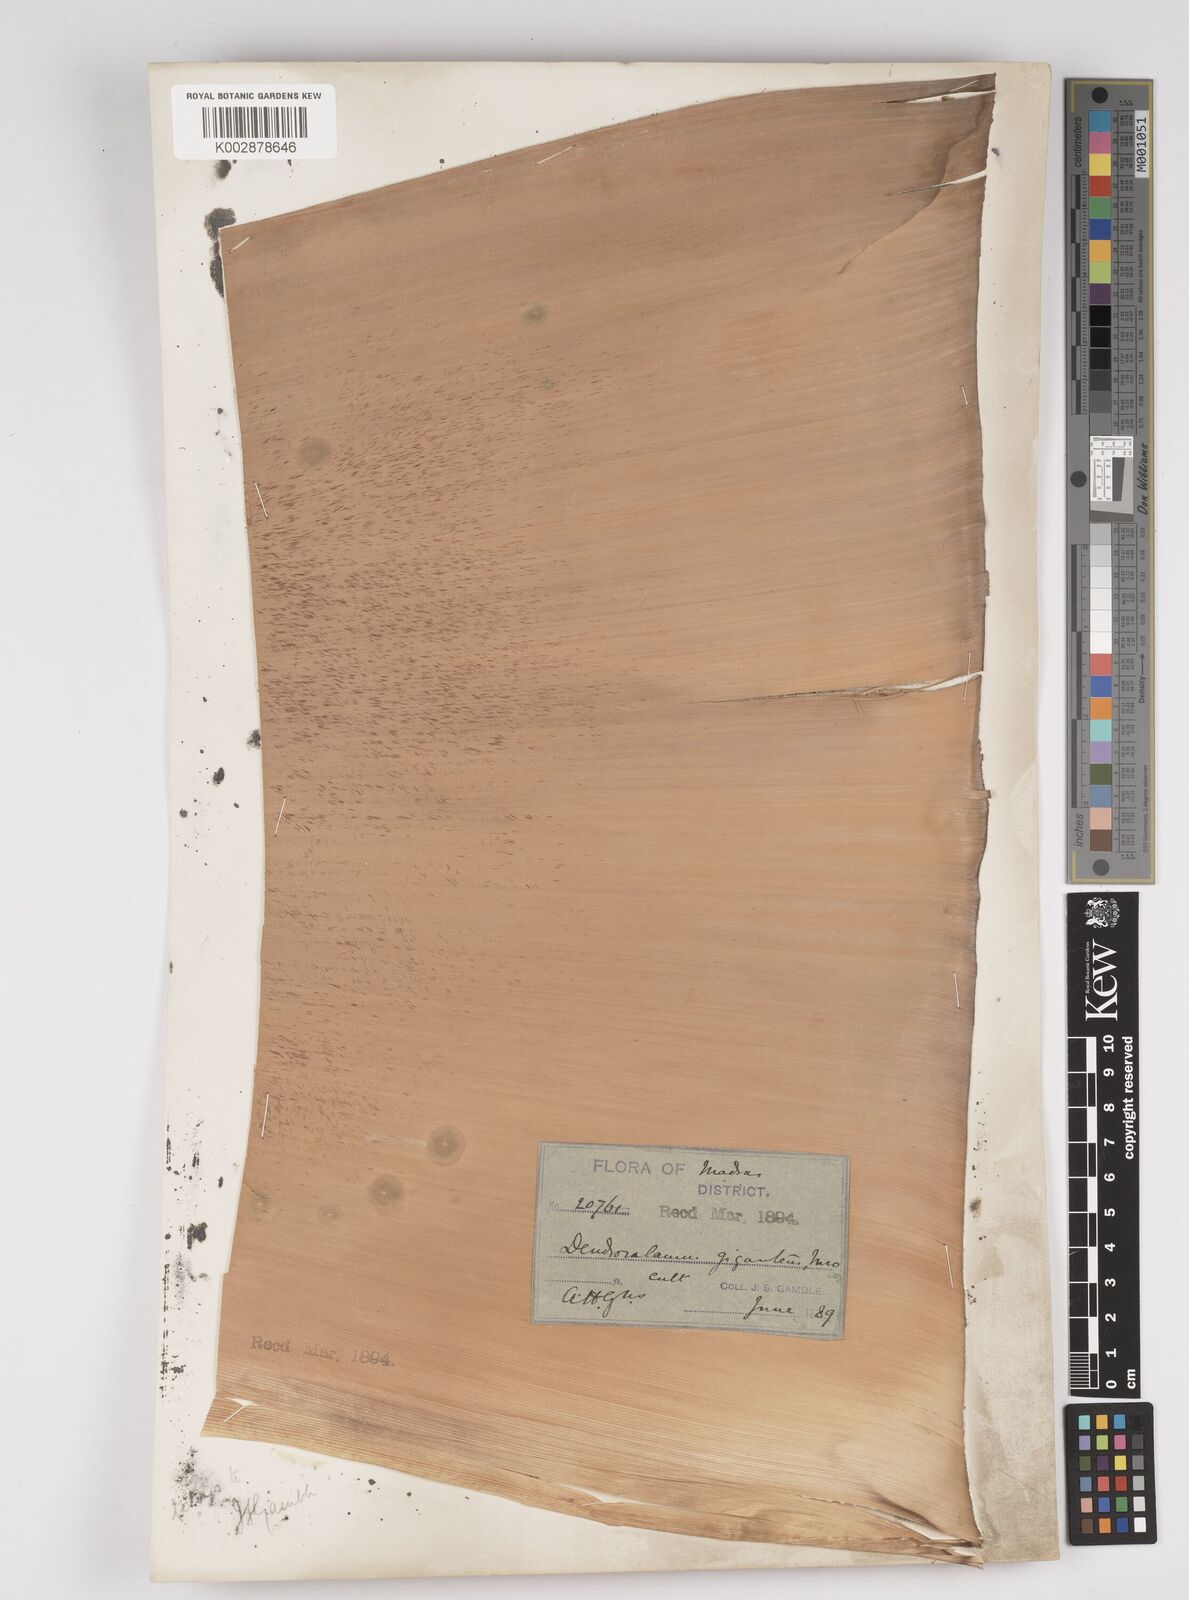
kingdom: Plantae
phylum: Tracheophyta
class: Liliopsida
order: Poales
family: Poaceae
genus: Dendrocalamus
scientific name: Dendrocalamus giganteus
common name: Giant bamboo
